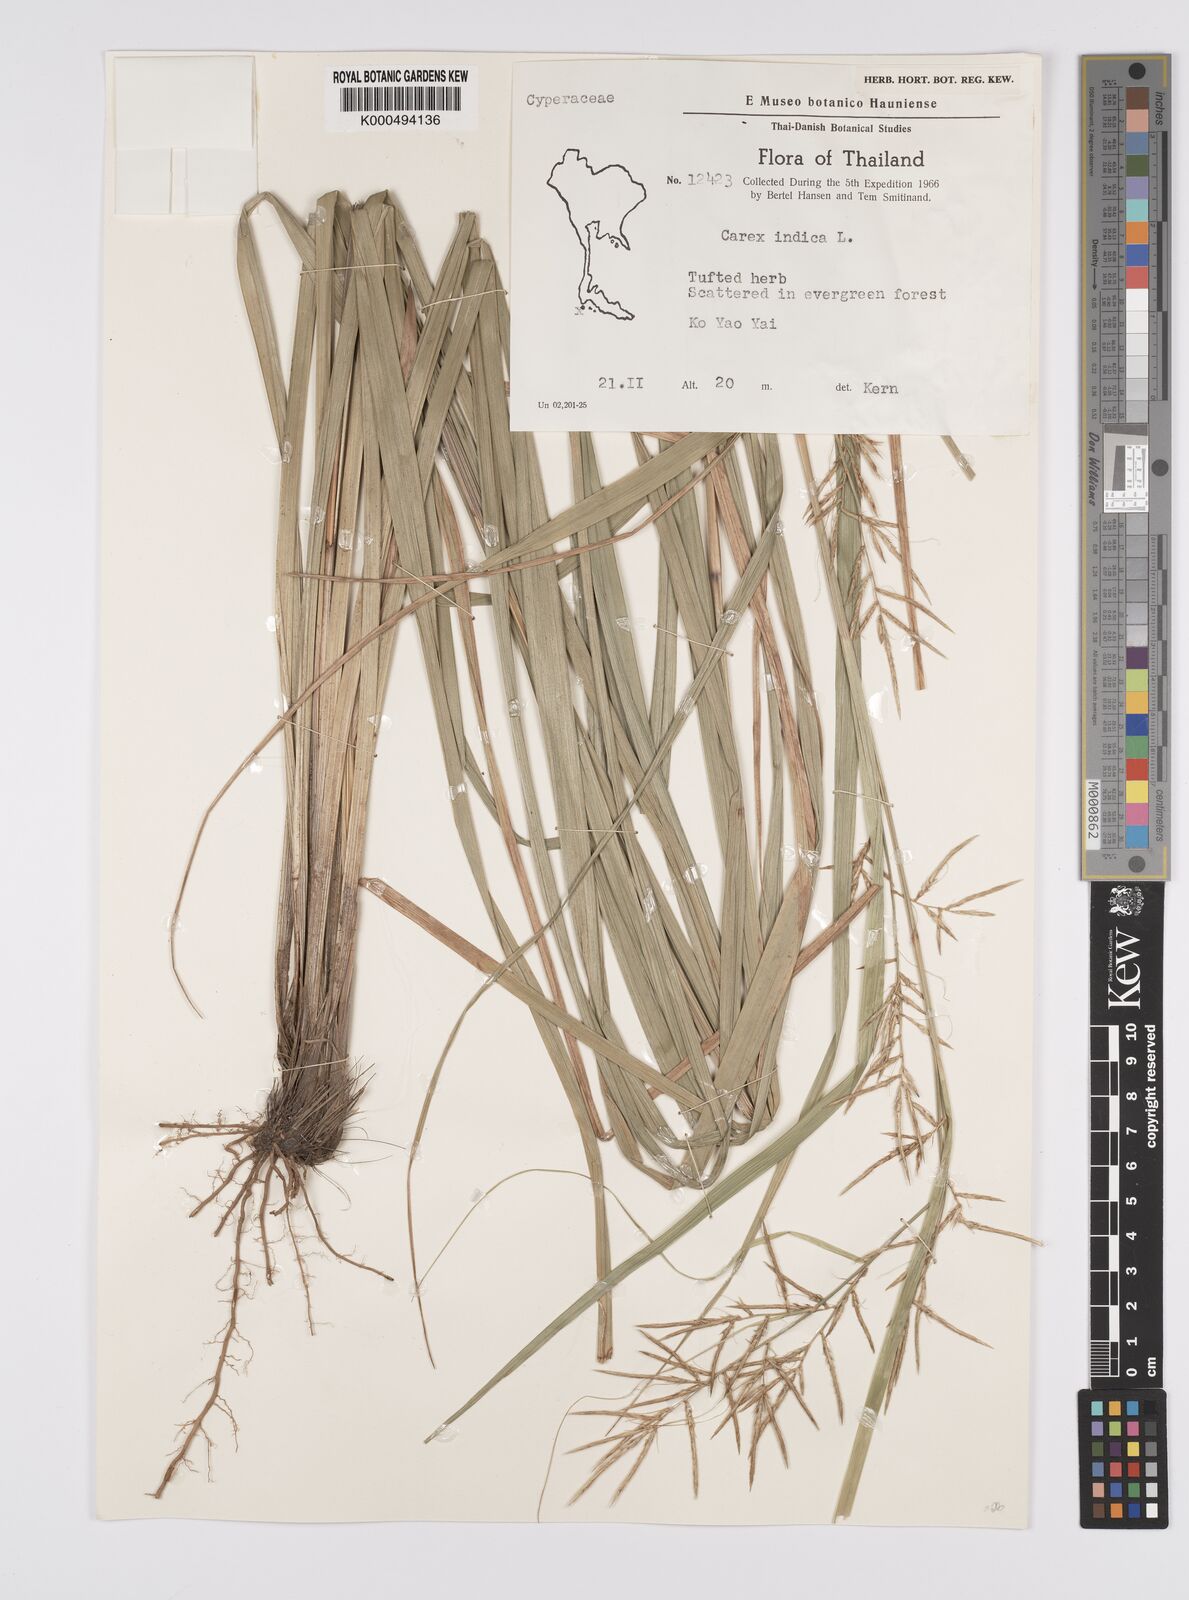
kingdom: Plantae
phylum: Tracheophyta
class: Liliopsida
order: Poales
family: Cyperaceae
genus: Carex
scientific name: Carex indica
